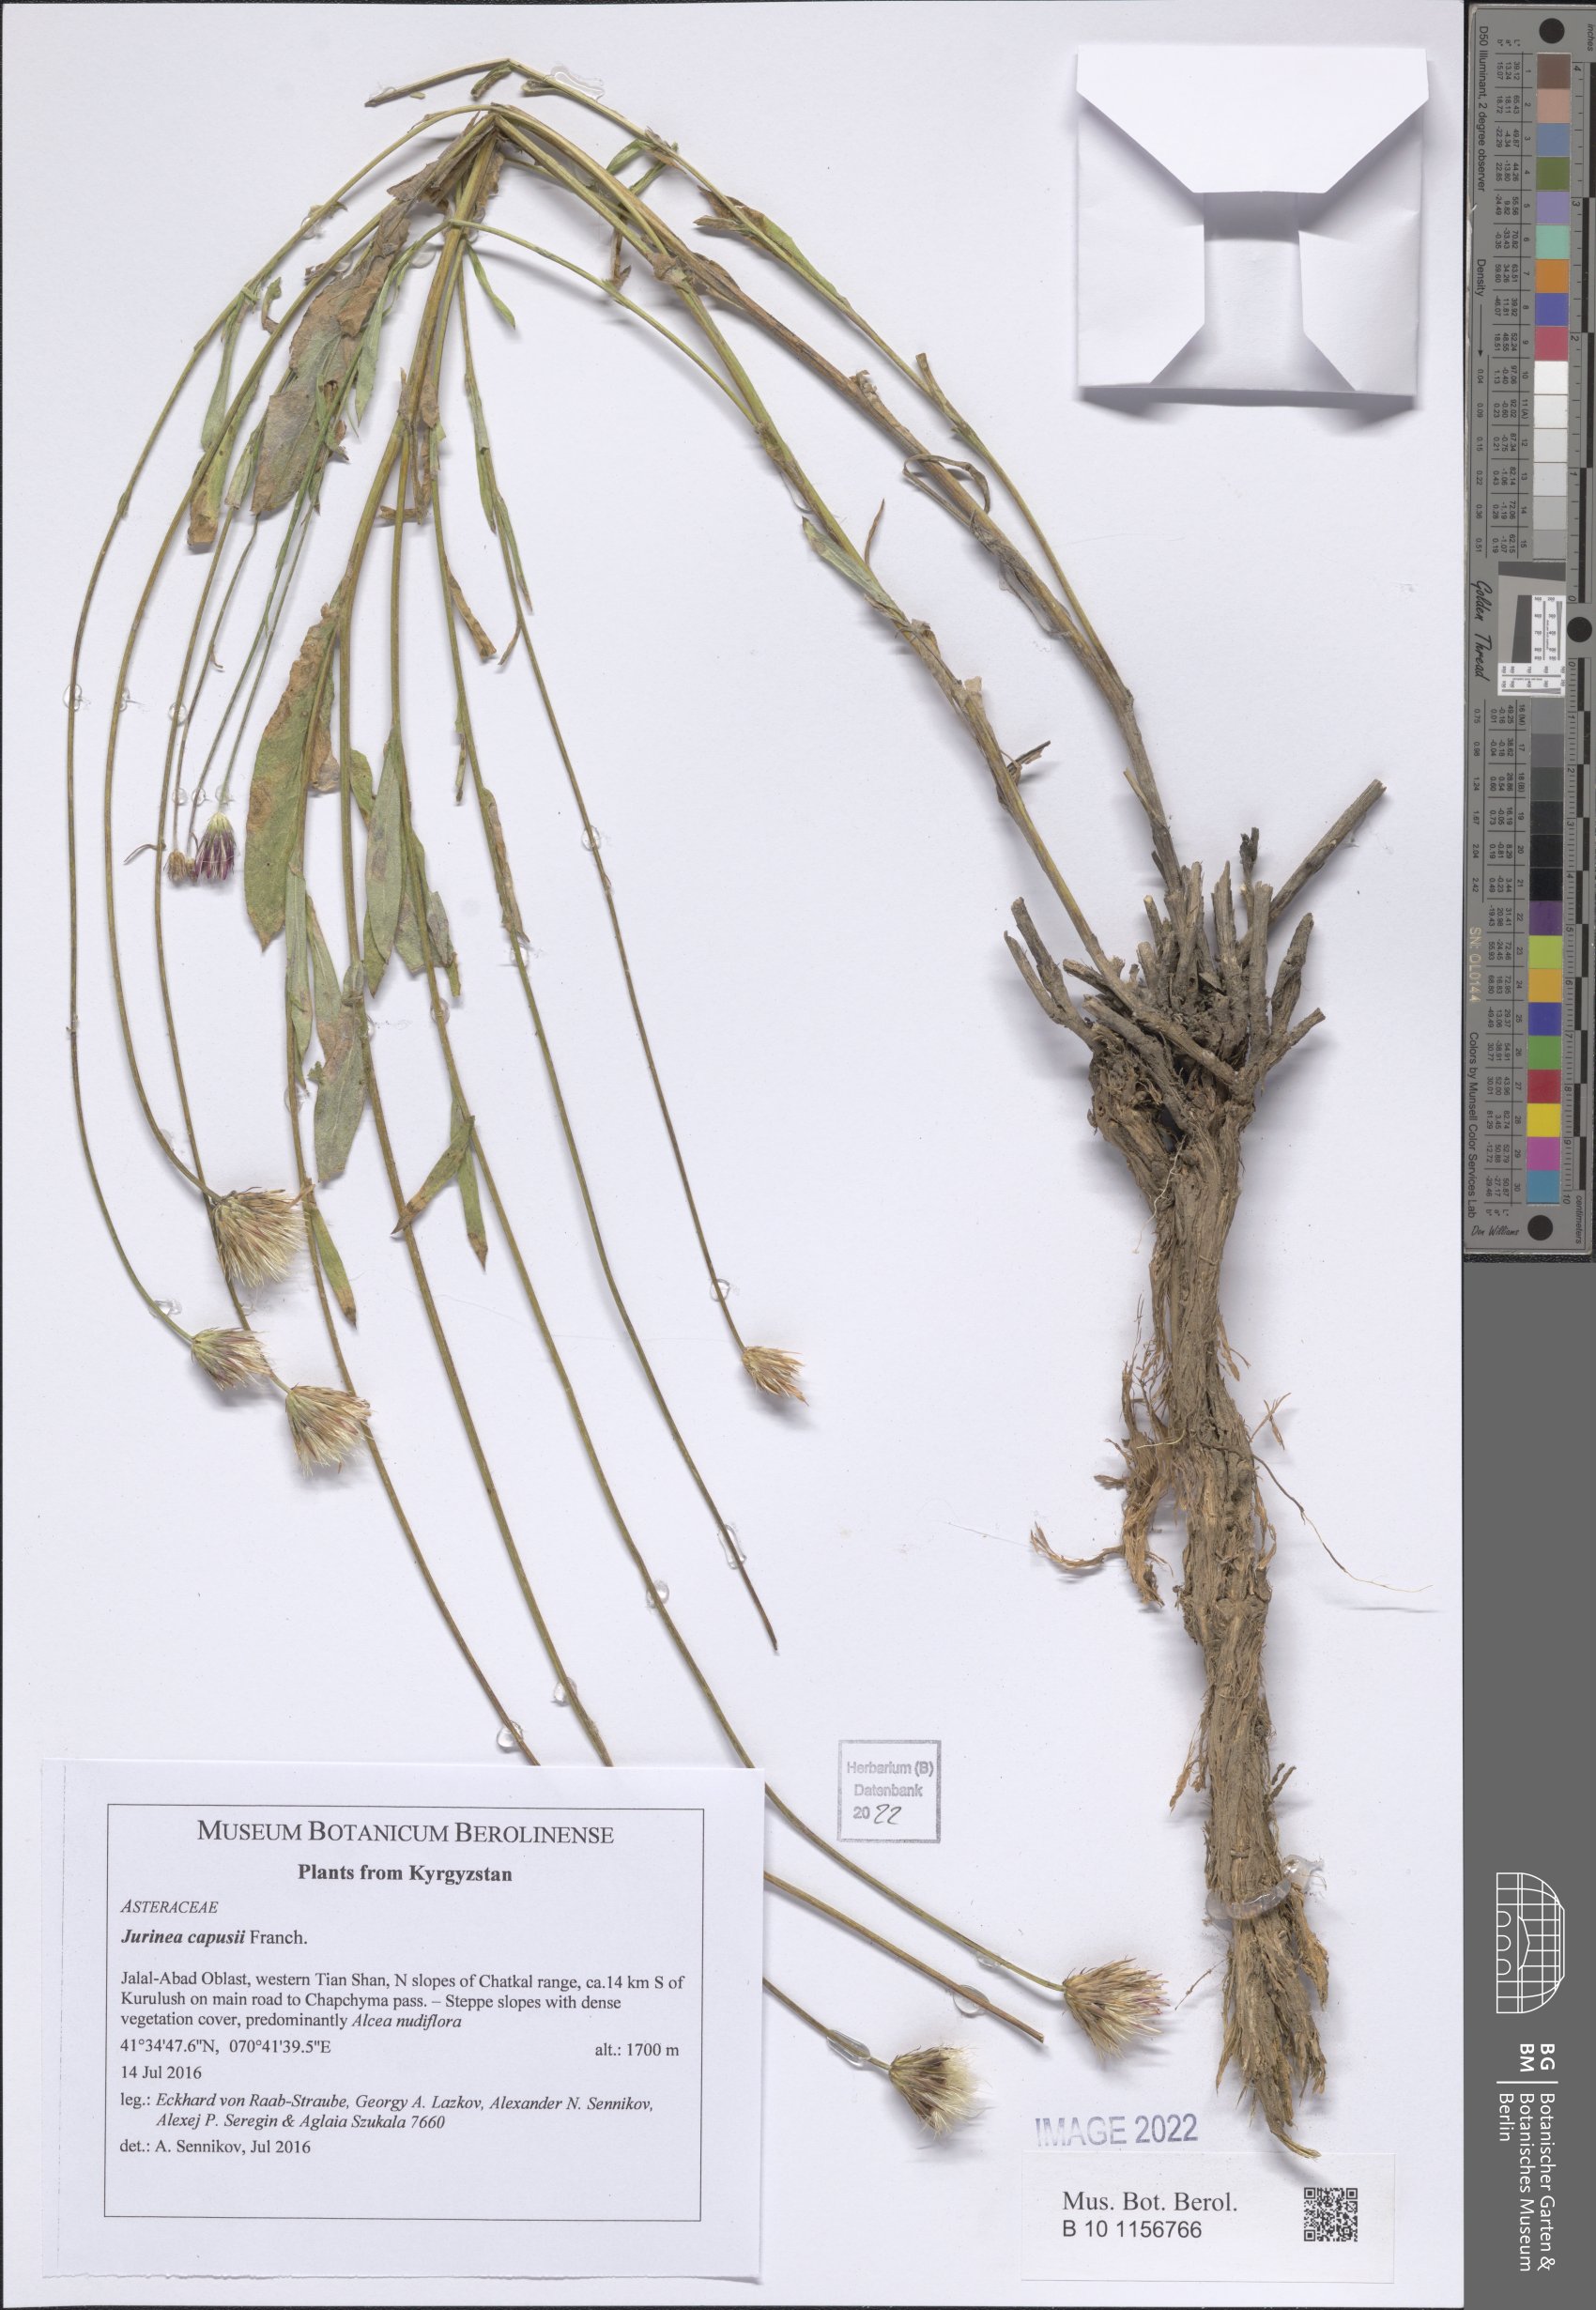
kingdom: Plantae
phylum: Tracheophyta
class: Magnoliopsida
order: Asterales
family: Asteraceae
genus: Jurinea
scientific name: Jurinea capusii
